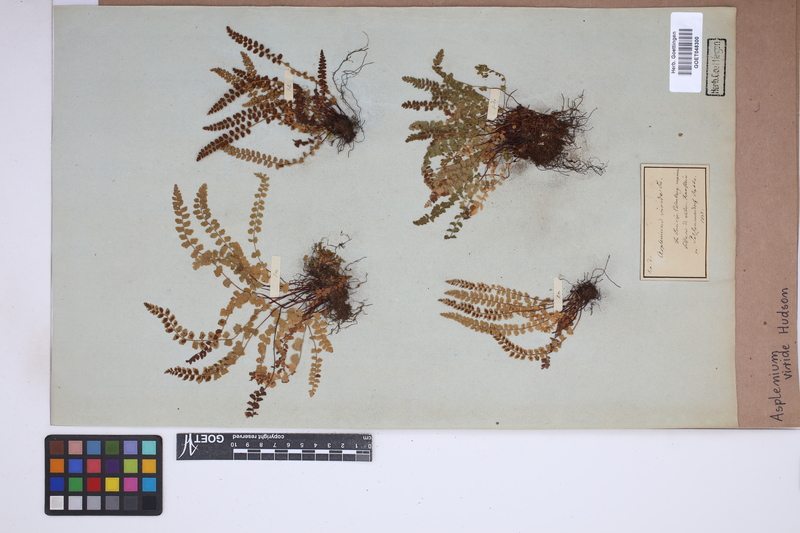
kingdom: Plantae
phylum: Tracheophyta
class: Polypodiopsida
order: Polypodiales
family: Aspleniaceae
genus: Asplenium
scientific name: Asplenium viride
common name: Green spleenwort
